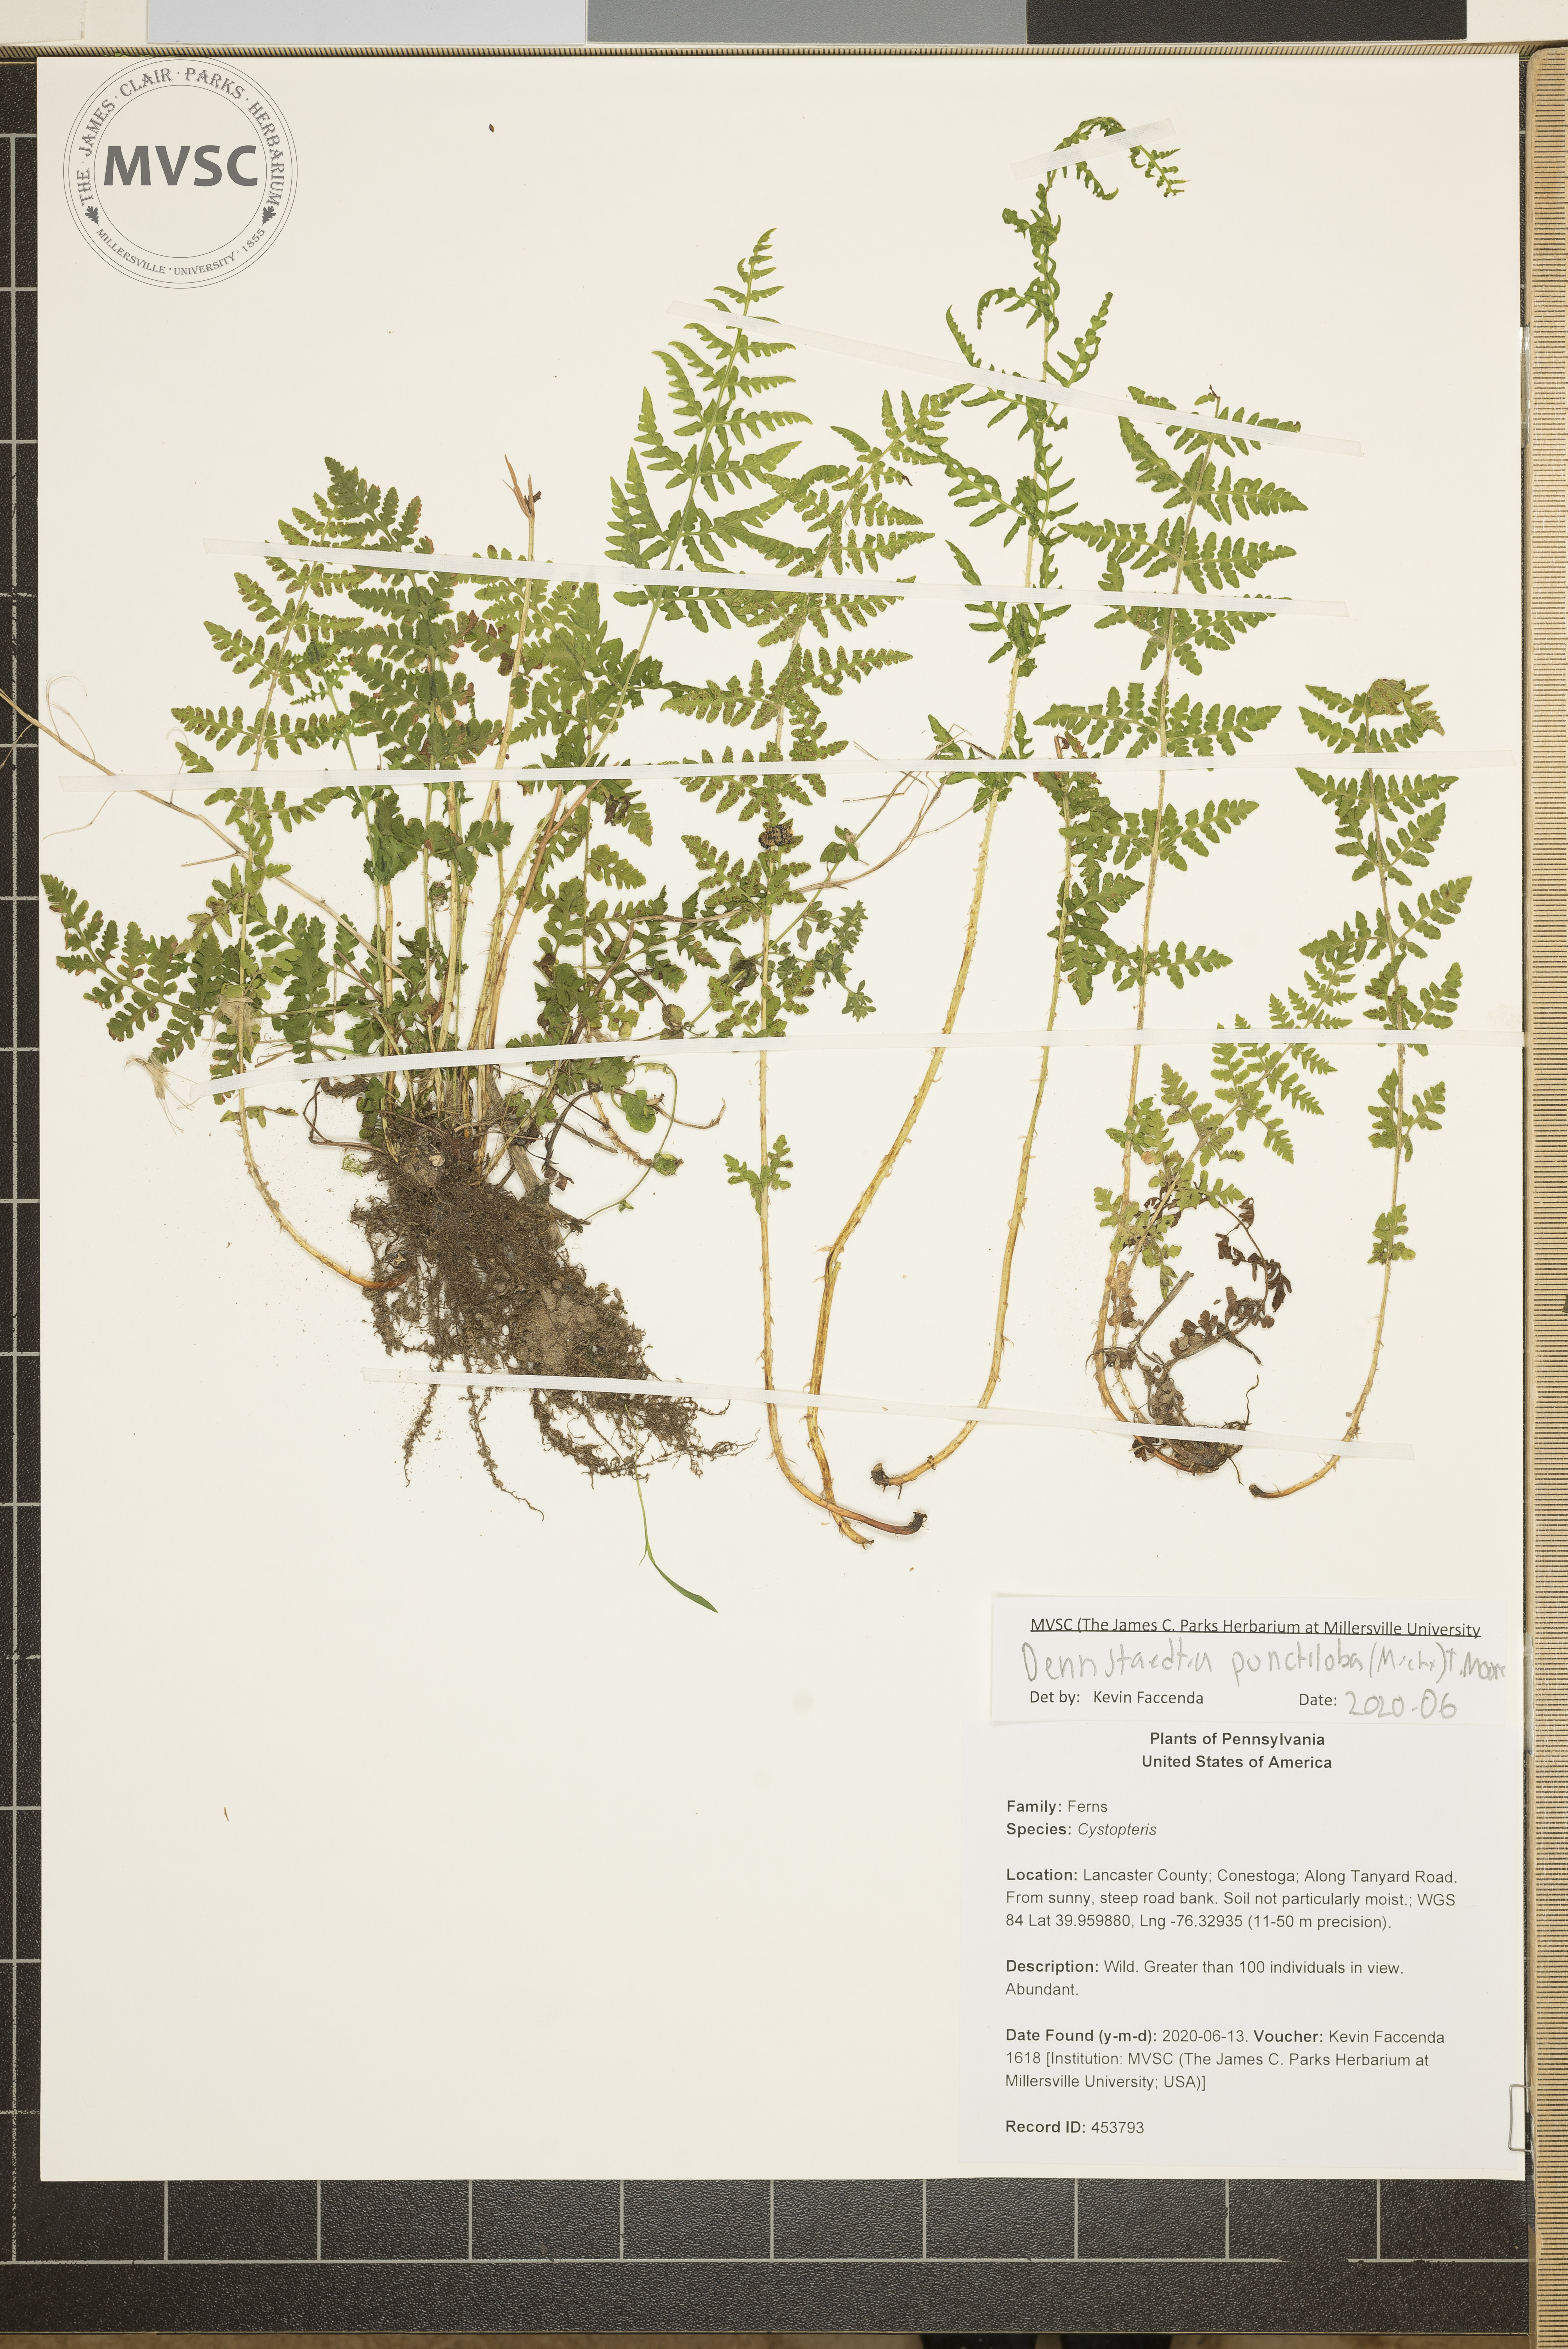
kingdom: Plantae
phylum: Tracheophyta
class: Polypodiopsida
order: Polypodiales
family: Dennstaedtiaceae
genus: Dennstaedtia
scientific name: Dennstaedtia
